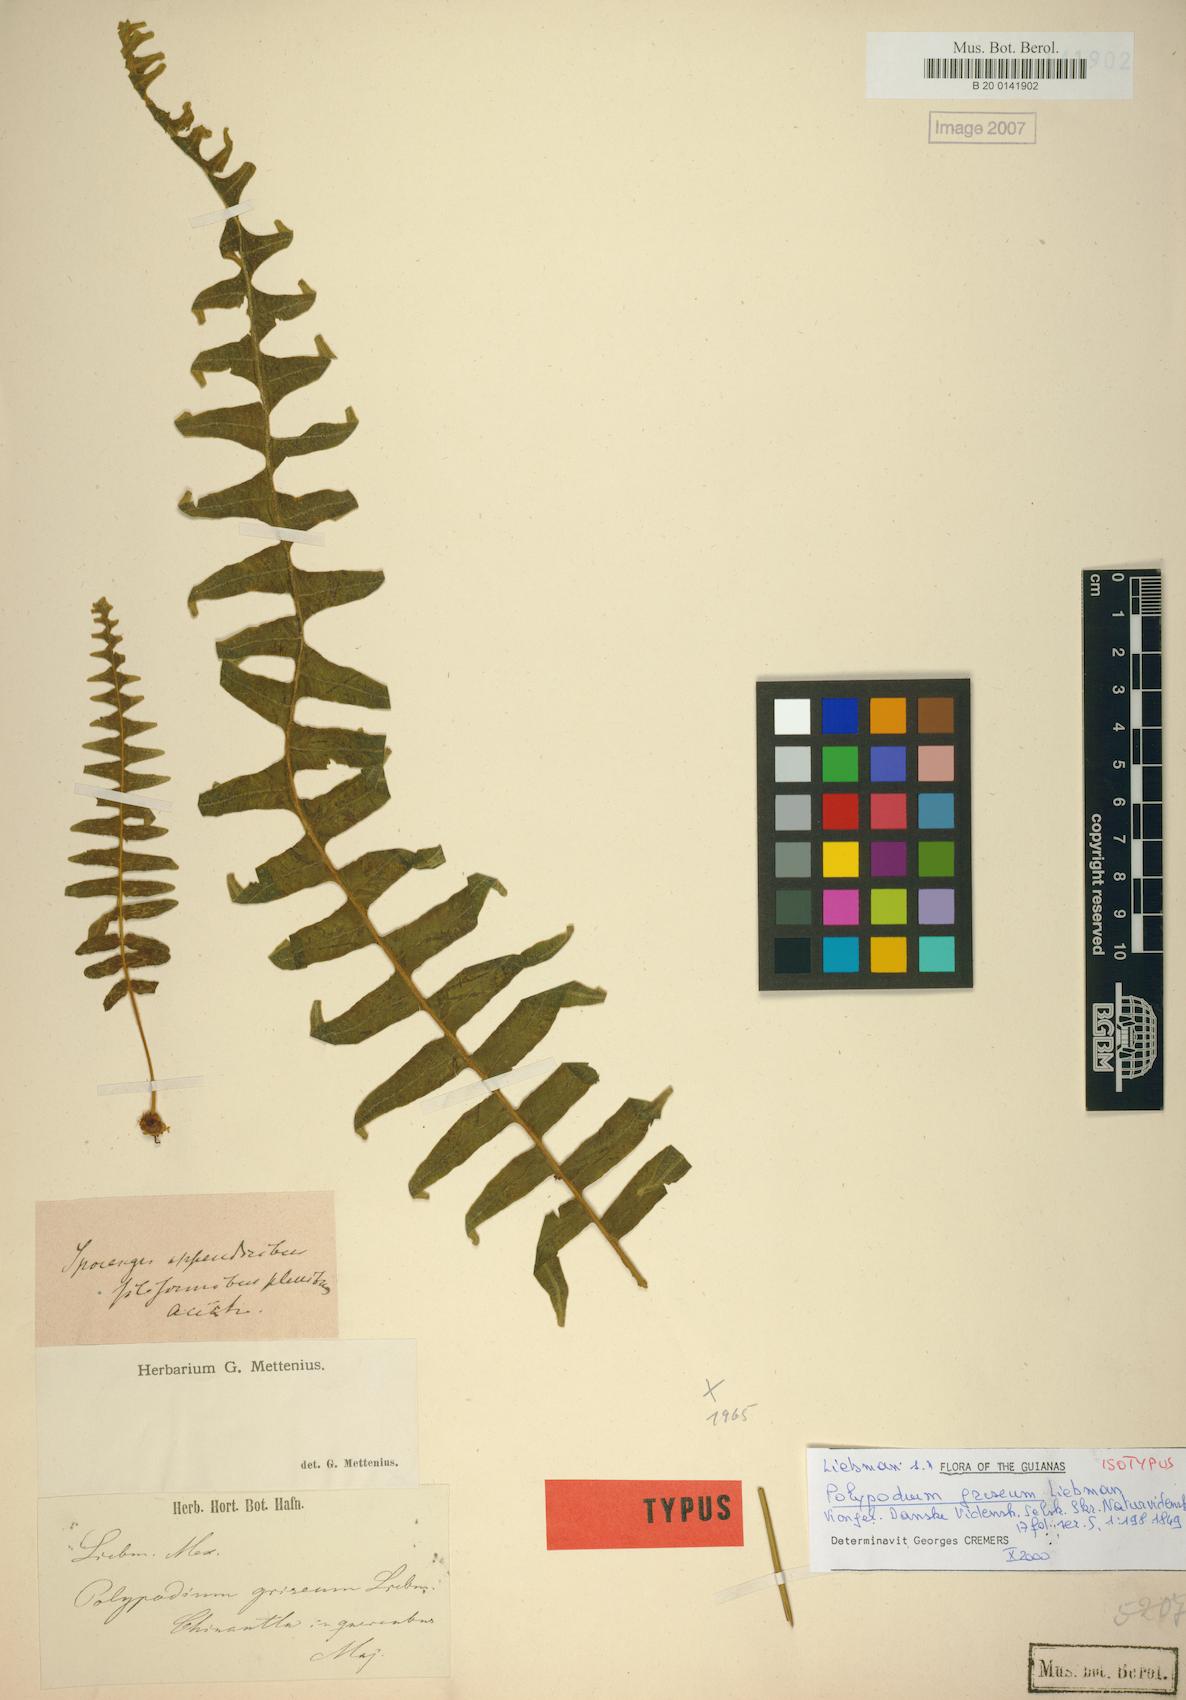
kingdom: Plantae
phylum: Tracheophyta
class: Polypodiopsida
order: Polypodiales
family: Polypodiaceae
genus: Pecluma
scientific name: Pecluma liebmannii
